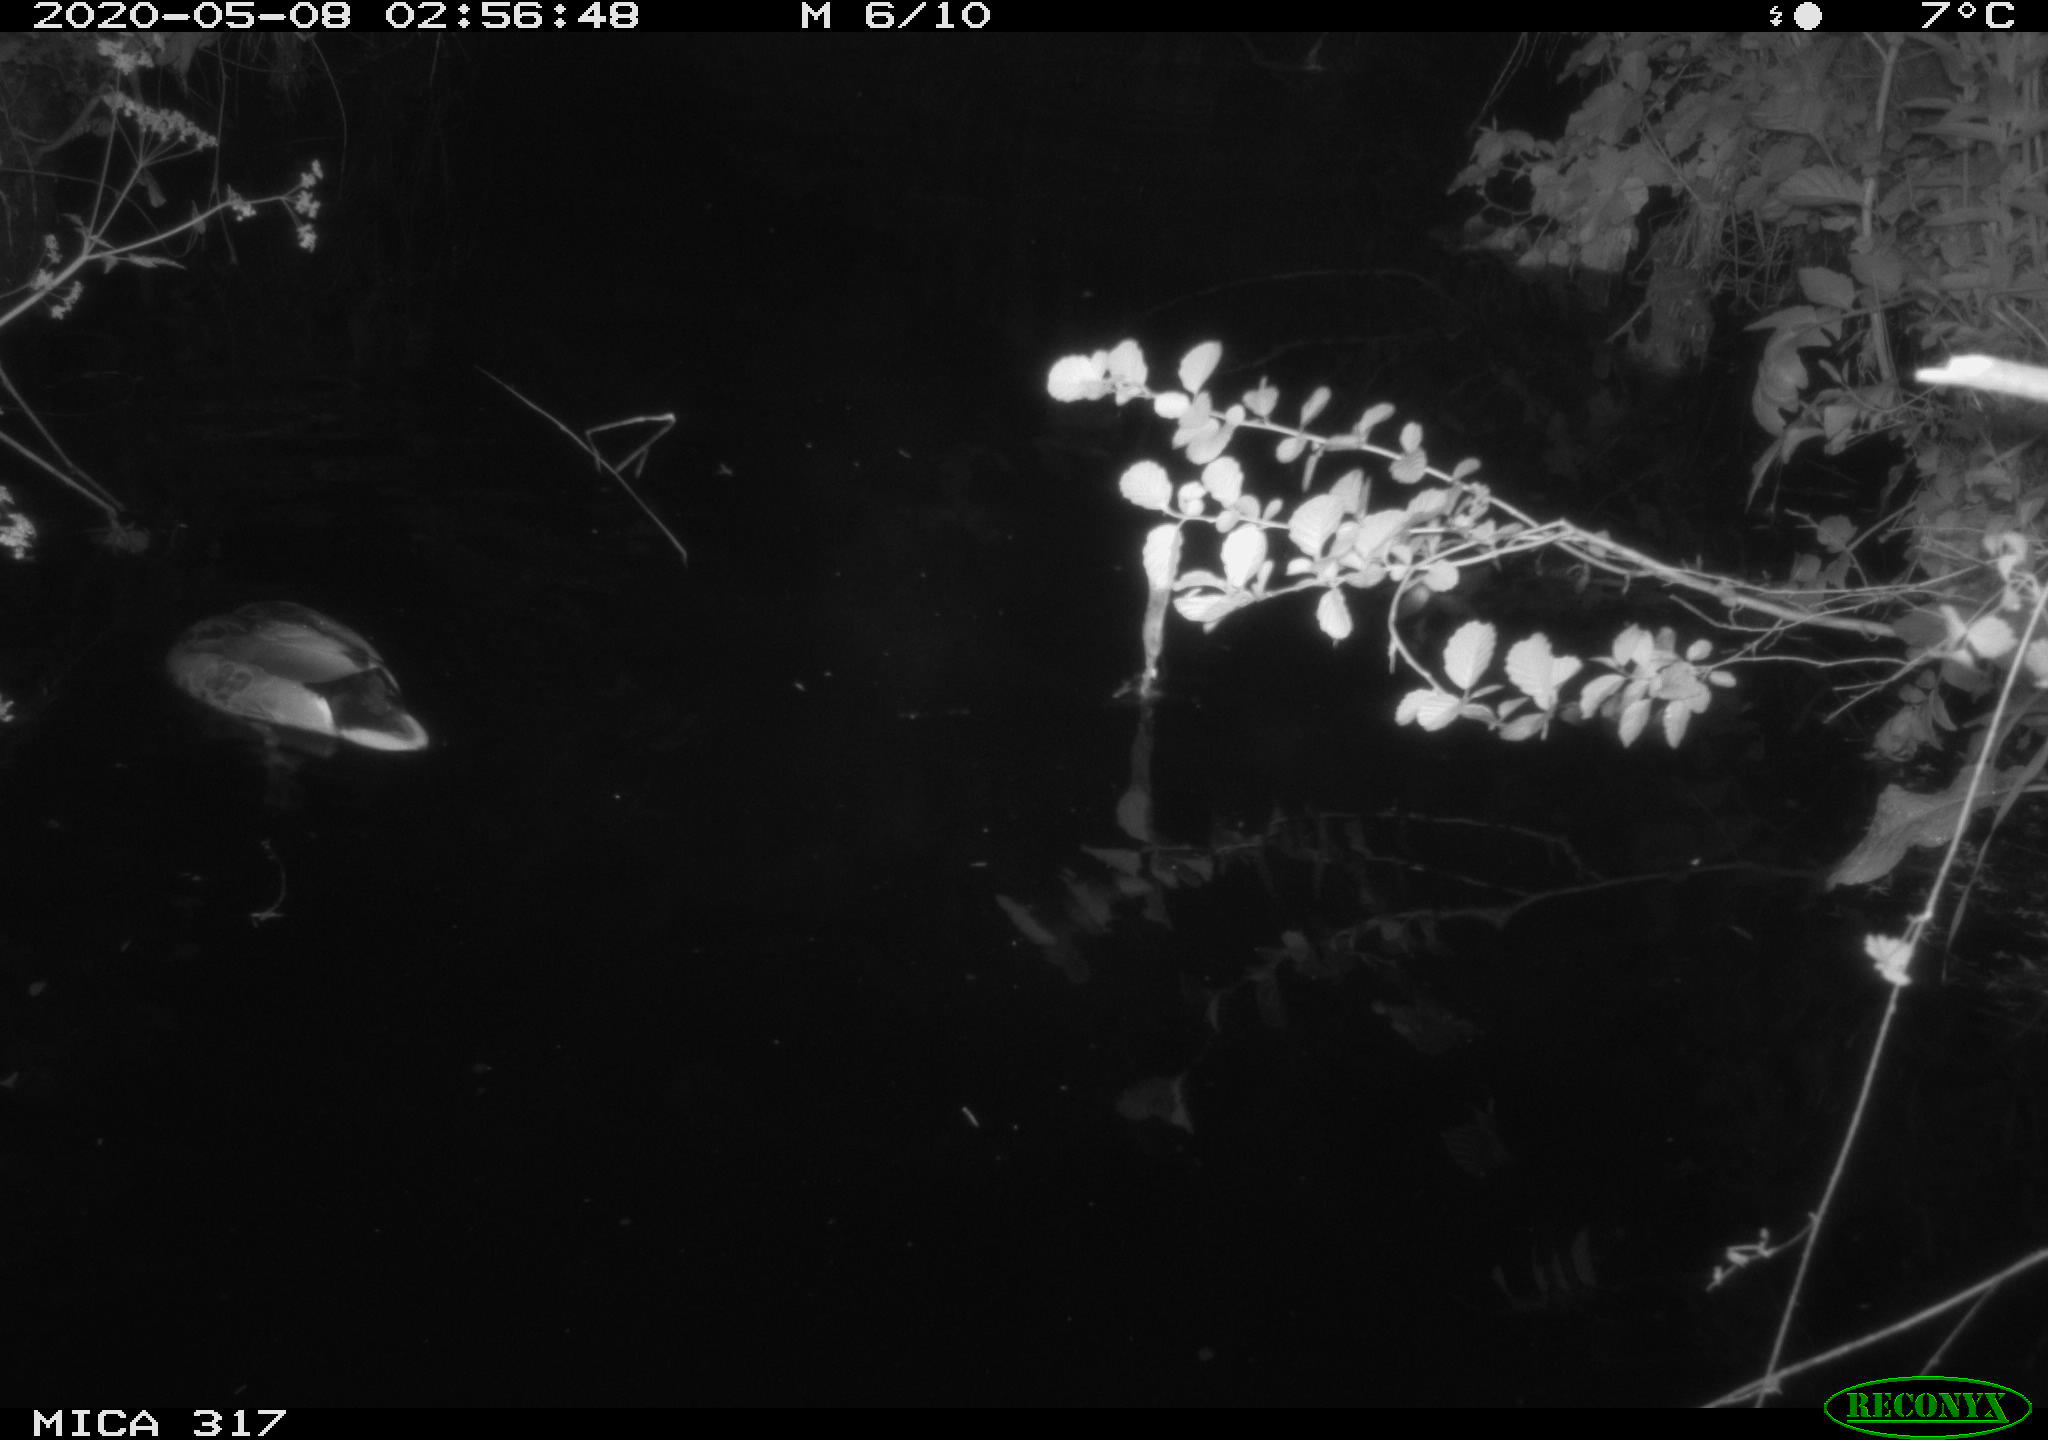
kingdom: Animalia
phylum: Chordata
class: Aves
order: Anseriformes
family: Anatidae
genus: Anas
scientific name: Anas platyrhynchos
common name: Mallard
